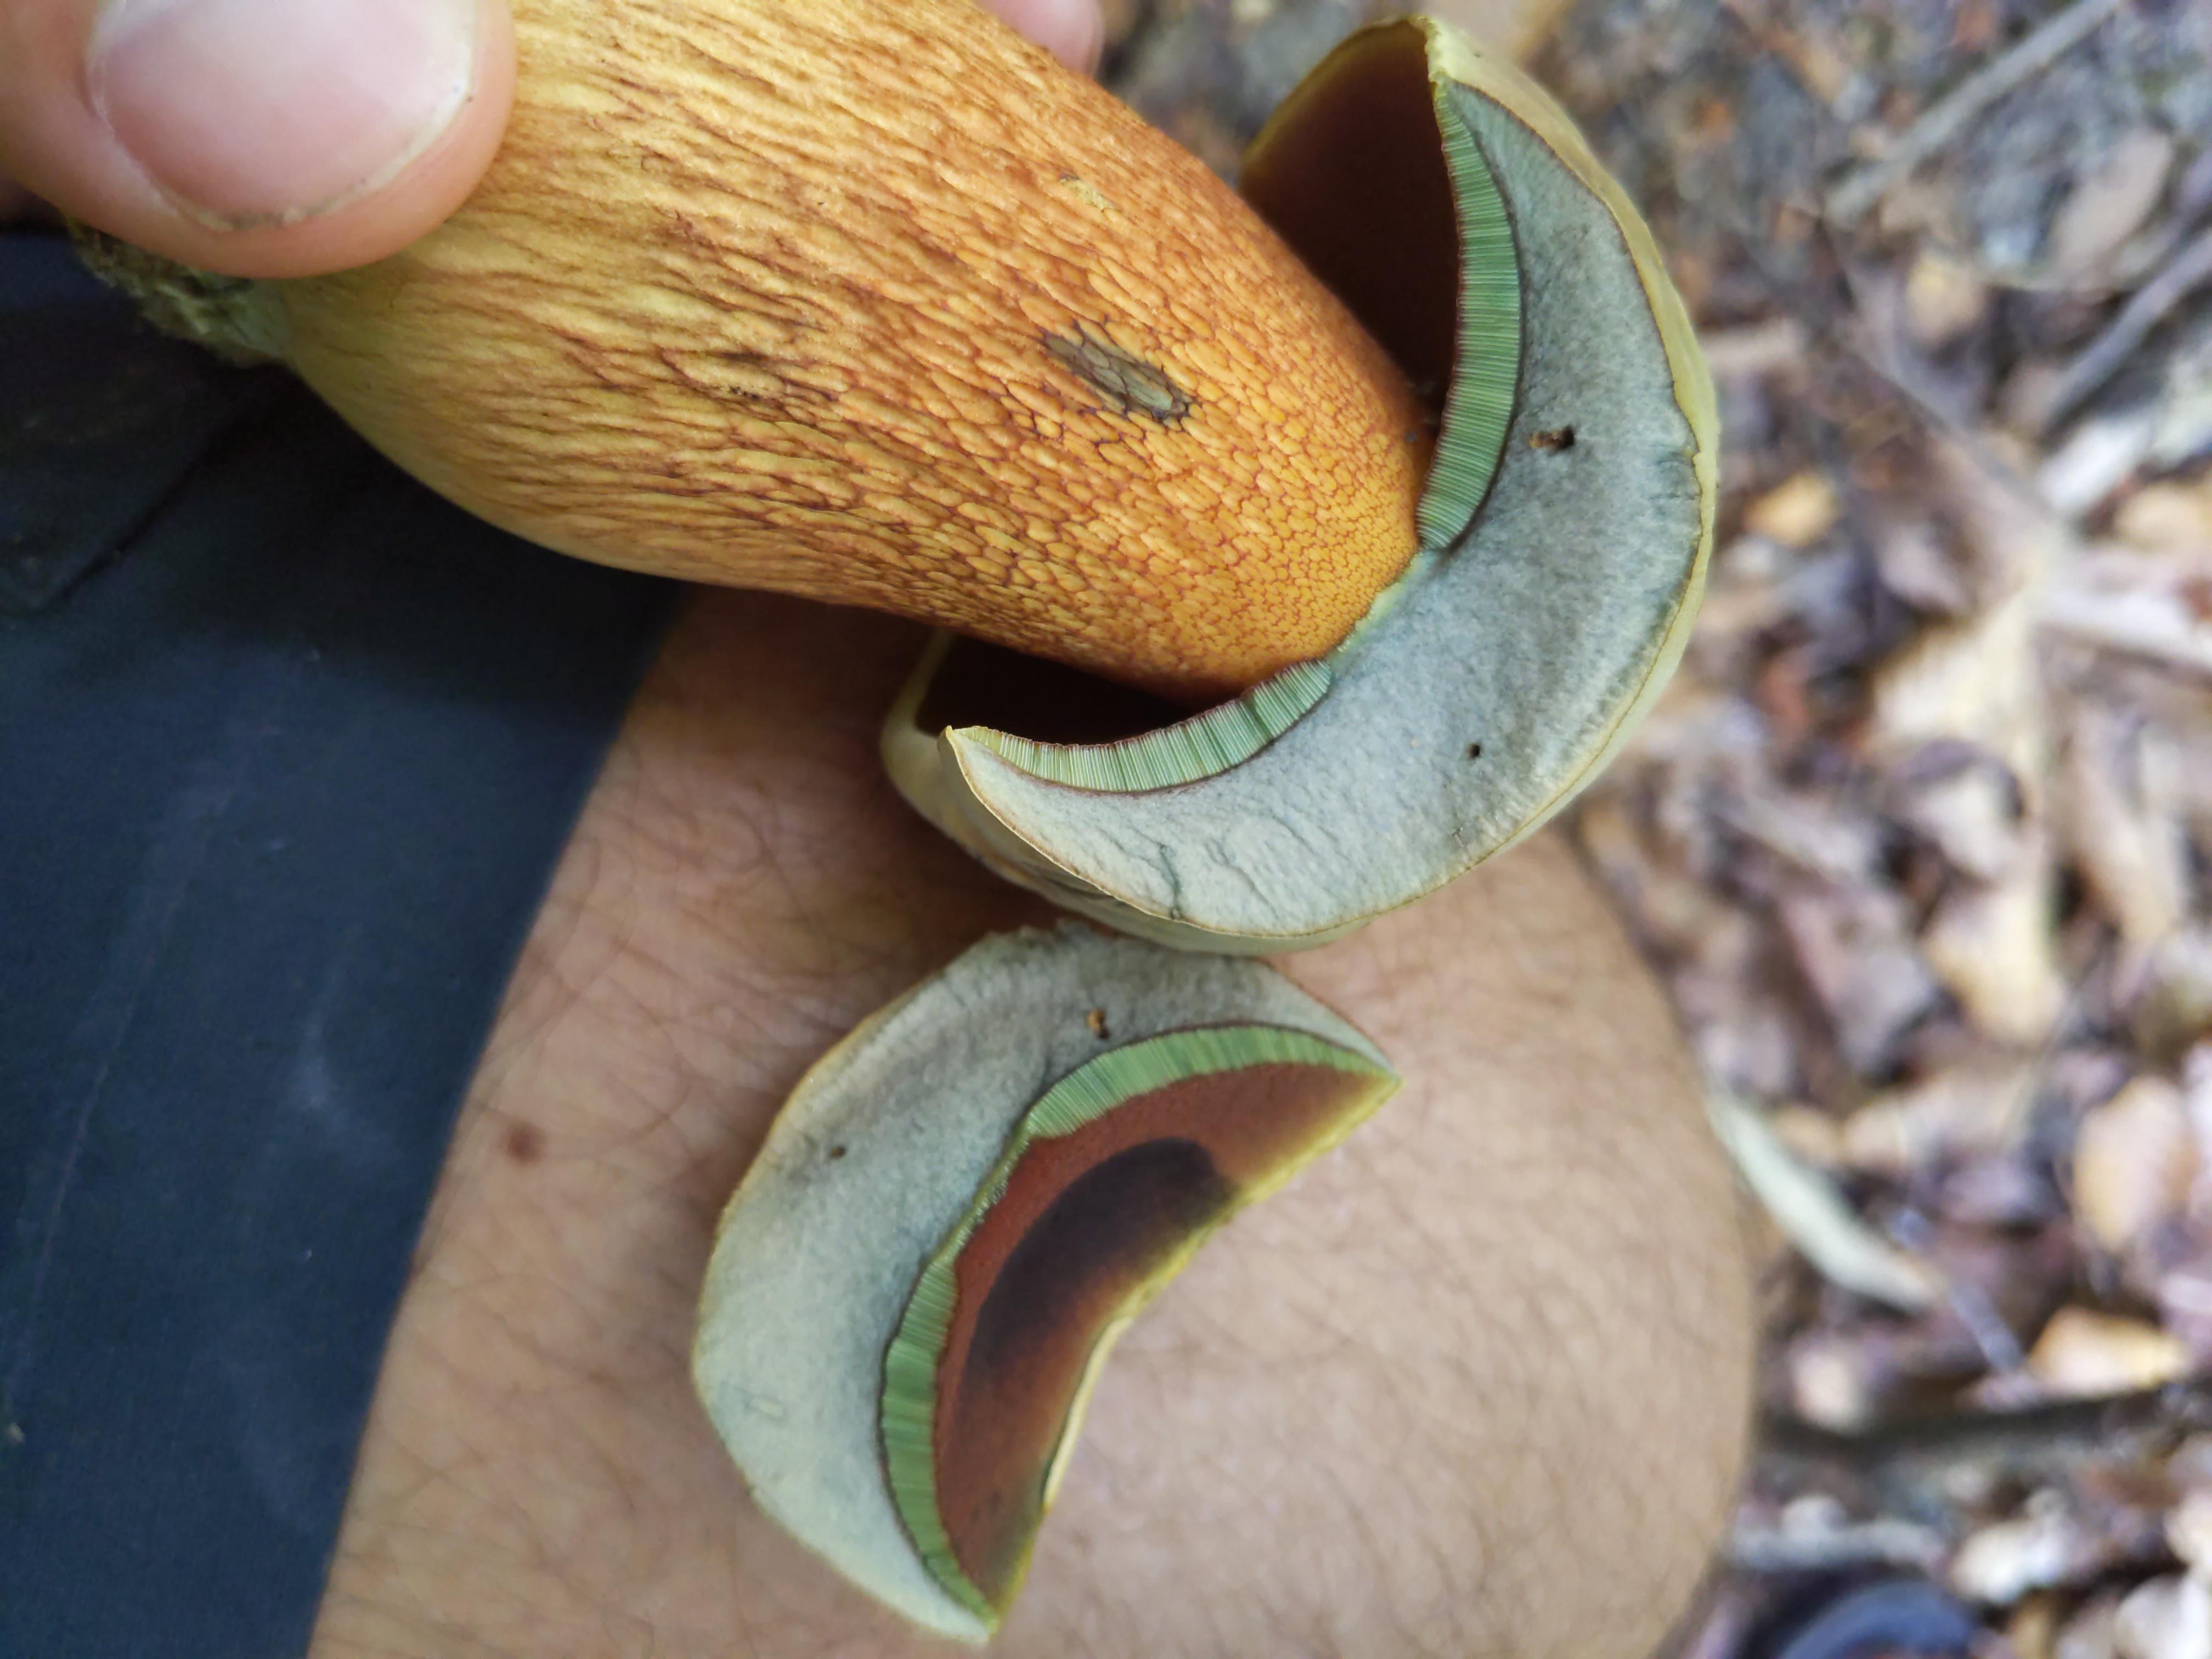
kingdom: Fungi
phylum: Basidiomycota
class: Agaricomycetes
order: Boletales
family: Boletaceae
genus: Suillellus
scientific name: Suillellus luridus
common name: netstokket indigorørhat
